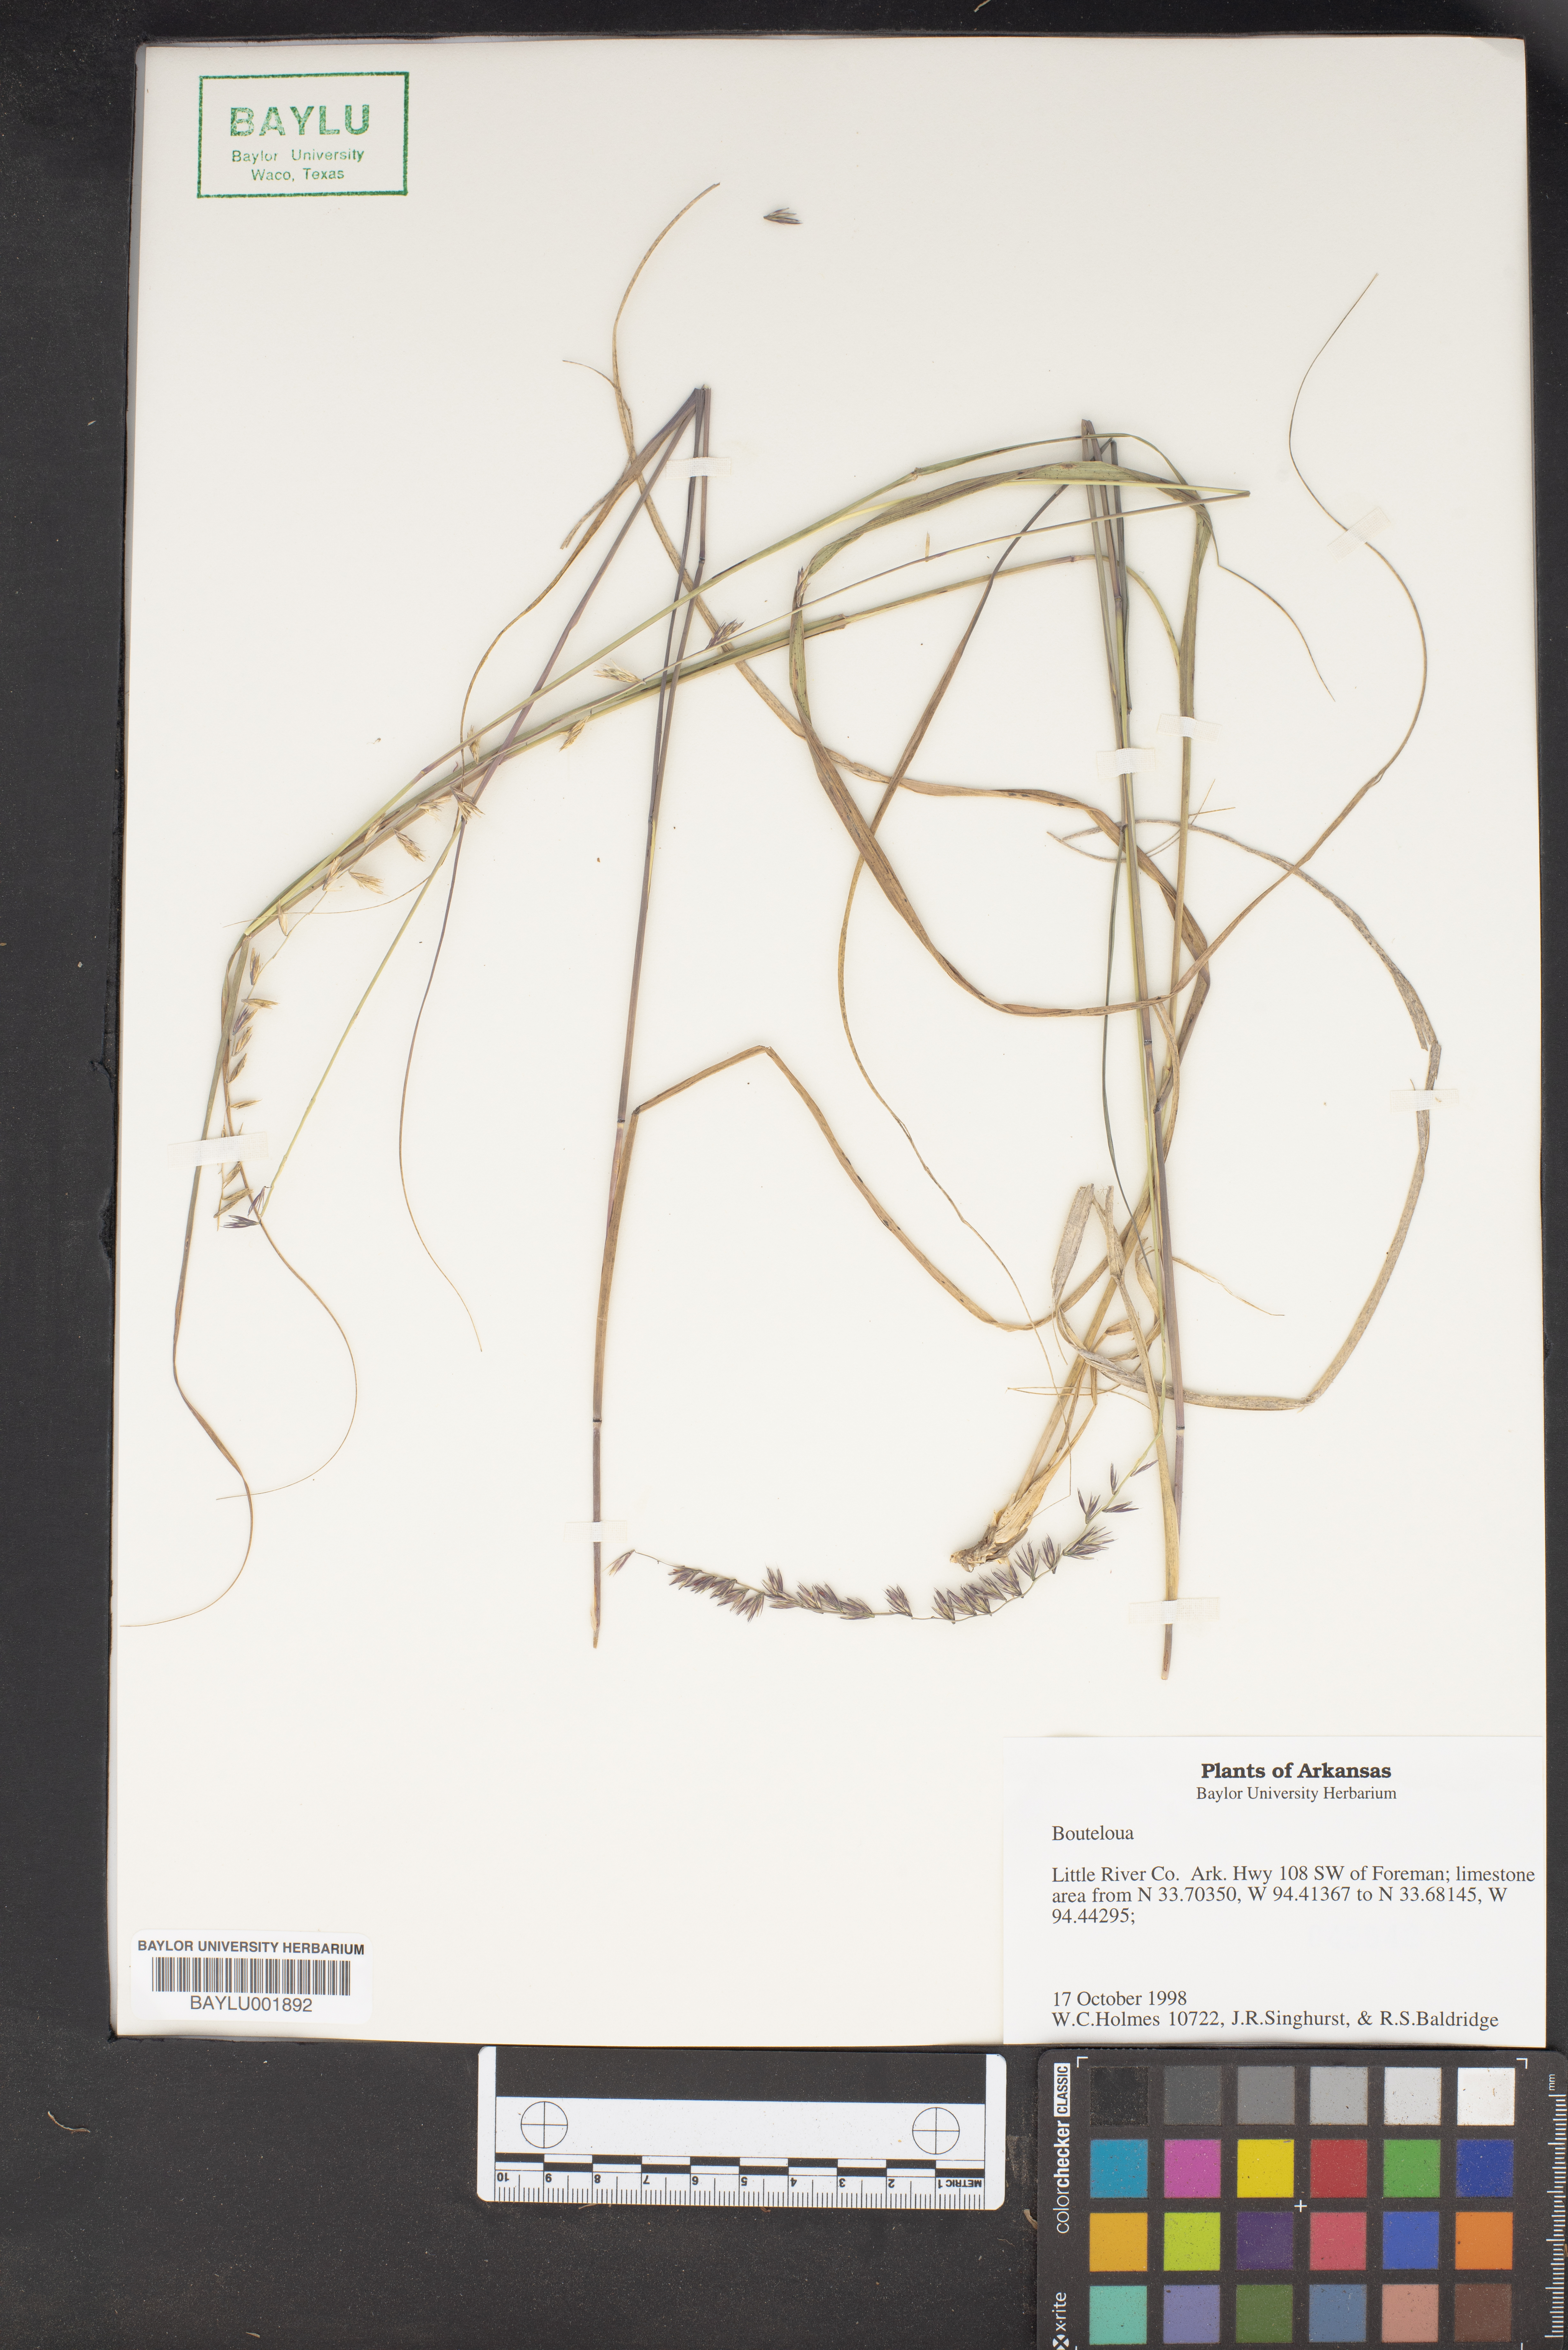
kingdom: Plantae
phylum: Tracheophyta
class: Liliopsida
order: Poales
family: Poaceae
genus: Bouteloua
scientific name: Bouteloua
